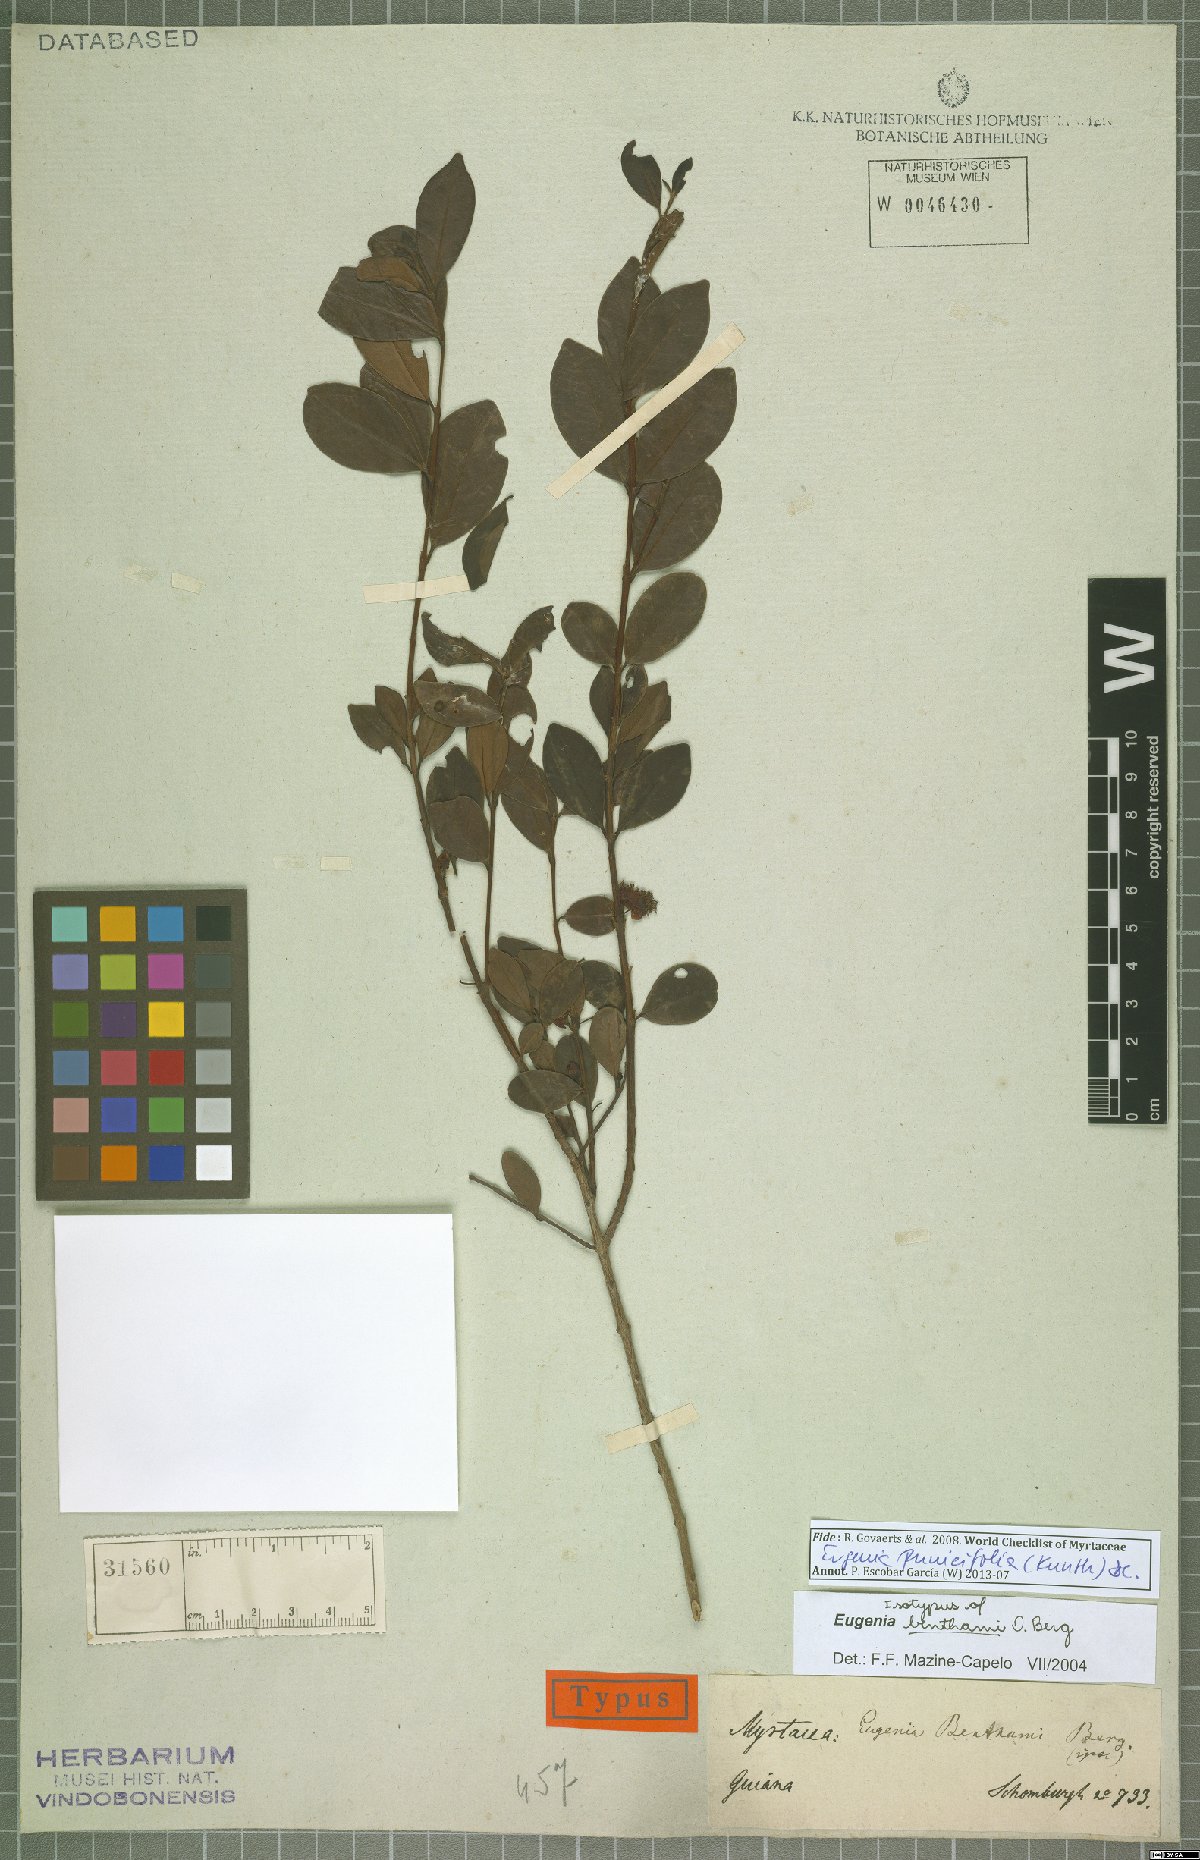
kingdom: Plantae
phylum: Tracheophyta
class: Magnoliopsida
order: Myrtales
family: Myrtaceae
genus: Eugenia
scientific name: Eugenia punicifolia
